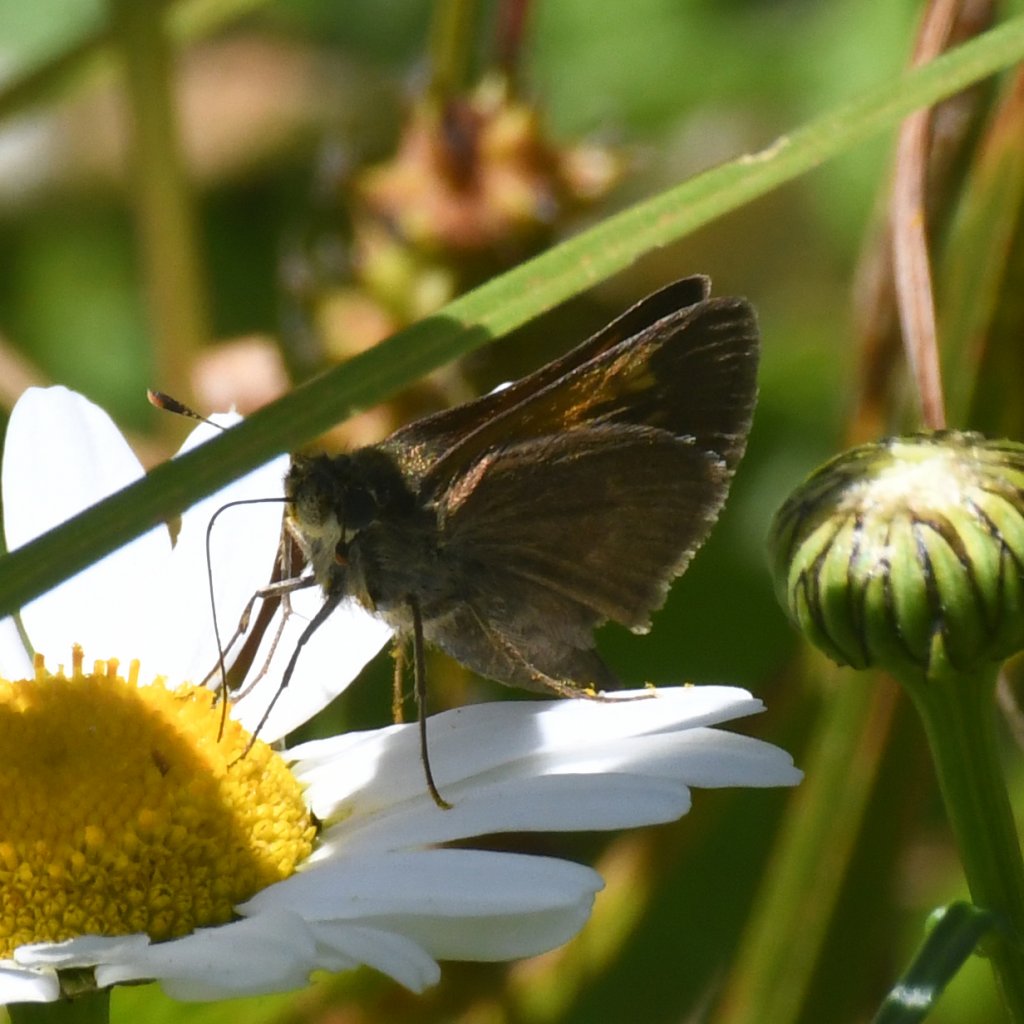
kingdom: Animalia
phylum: Arthropoda
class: Insecta
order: Lepidoptera
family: Hesperiidae
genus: Polites
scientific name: Polites themistocles
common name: Tawny-edged Skipper
